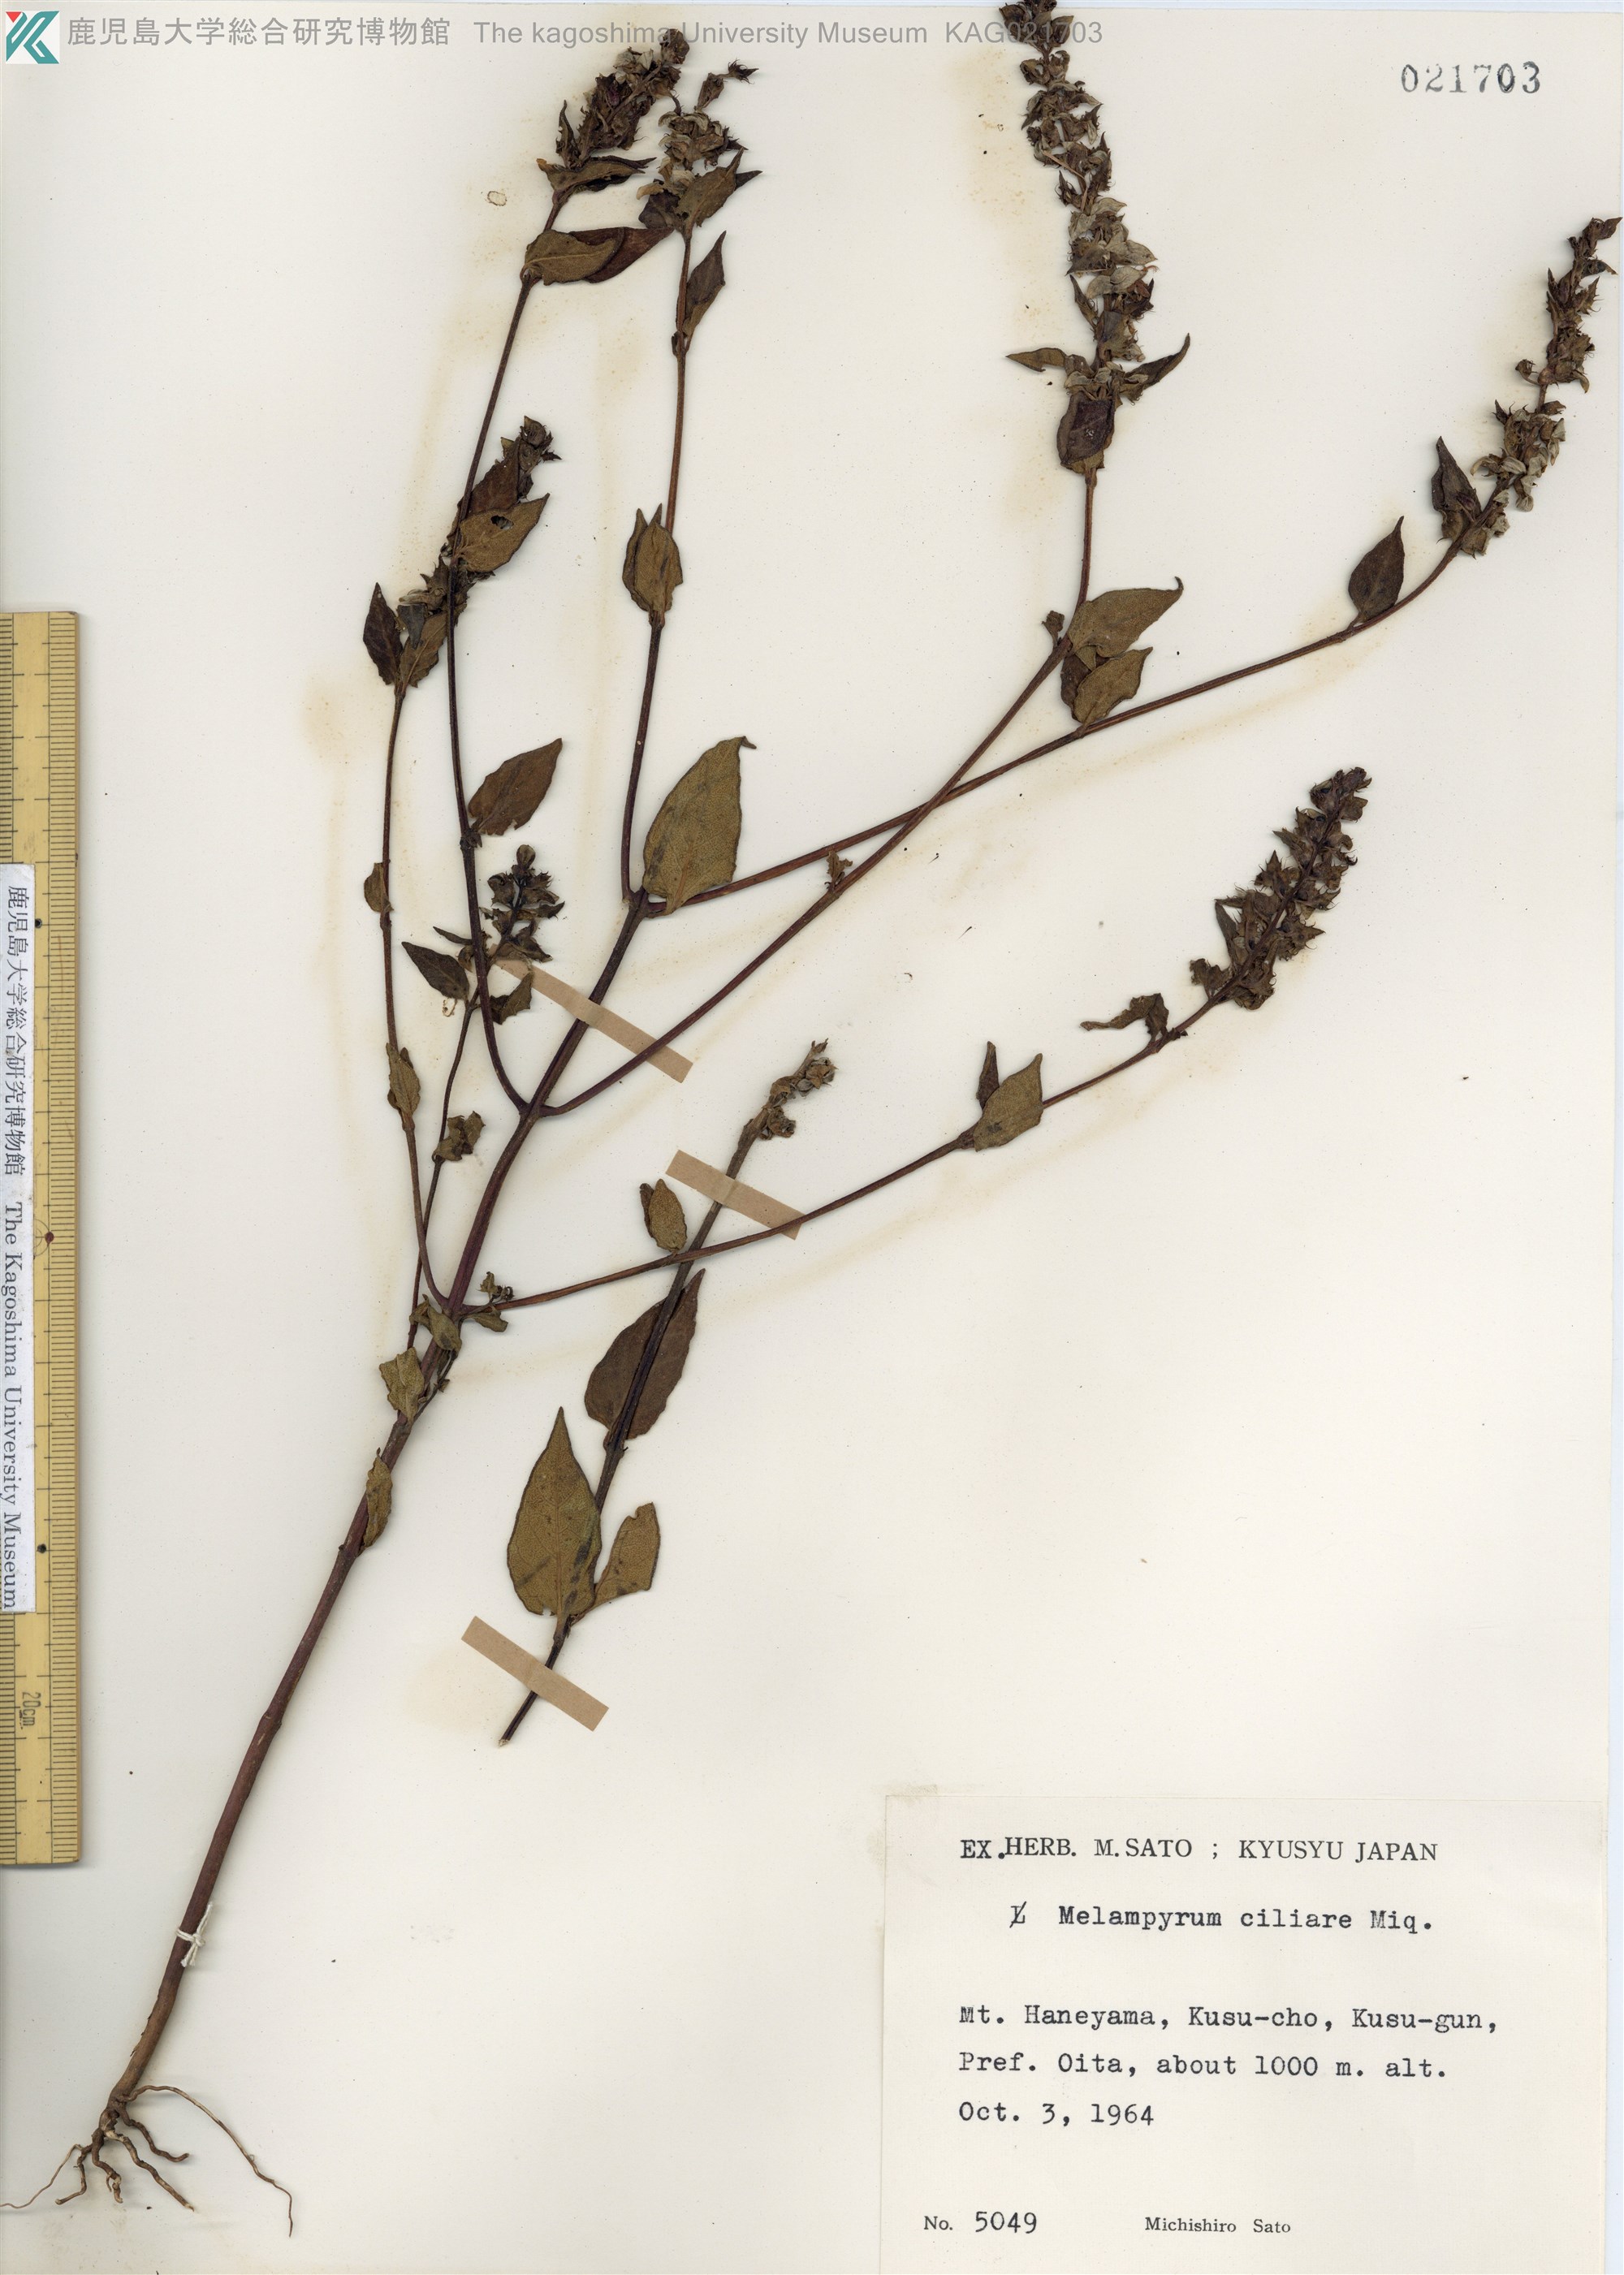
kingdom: Plantae
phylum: Tracheophyta
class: Magnoliopsida
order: Lamiales
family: Orobanchaceae
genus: Melampyrum
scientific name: Melampyrum roseum
